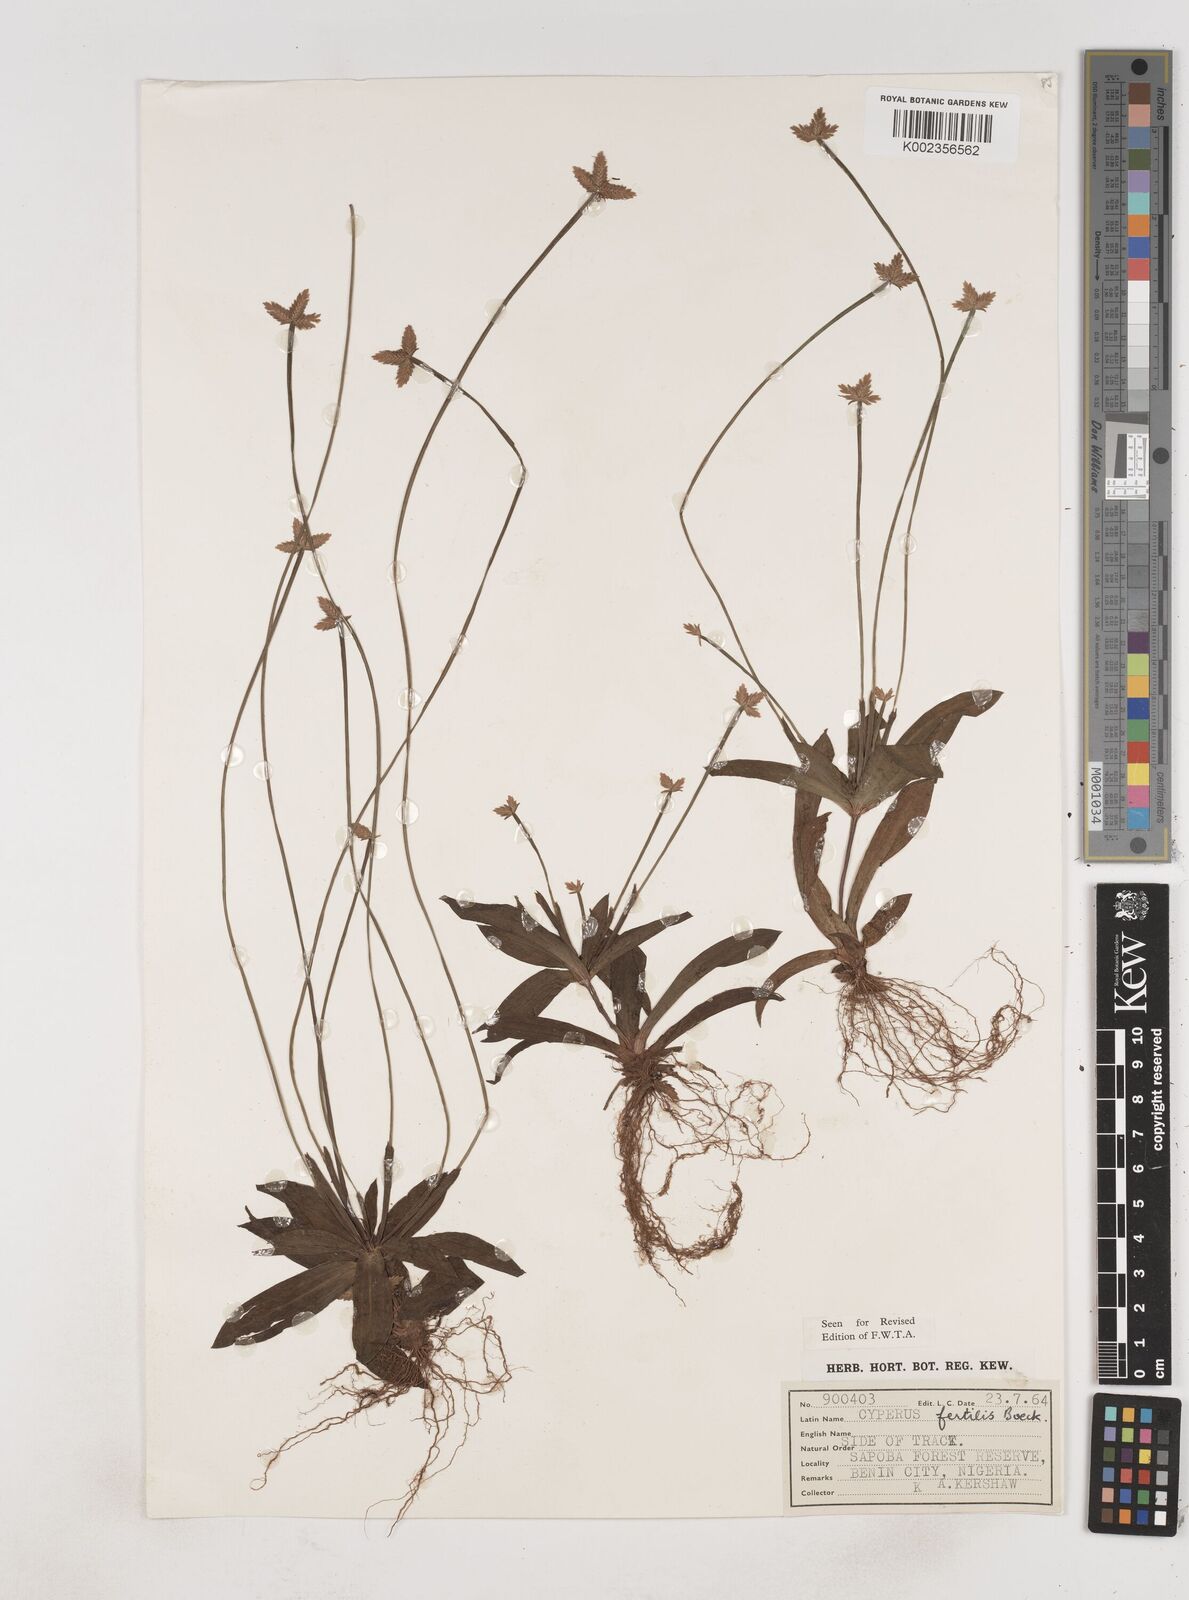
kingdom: Plantae
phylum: Tracheophyta
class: Liliopsida
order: Poales
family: Cyperaceae
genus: Cyperus
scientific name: Cyperus fertilis
